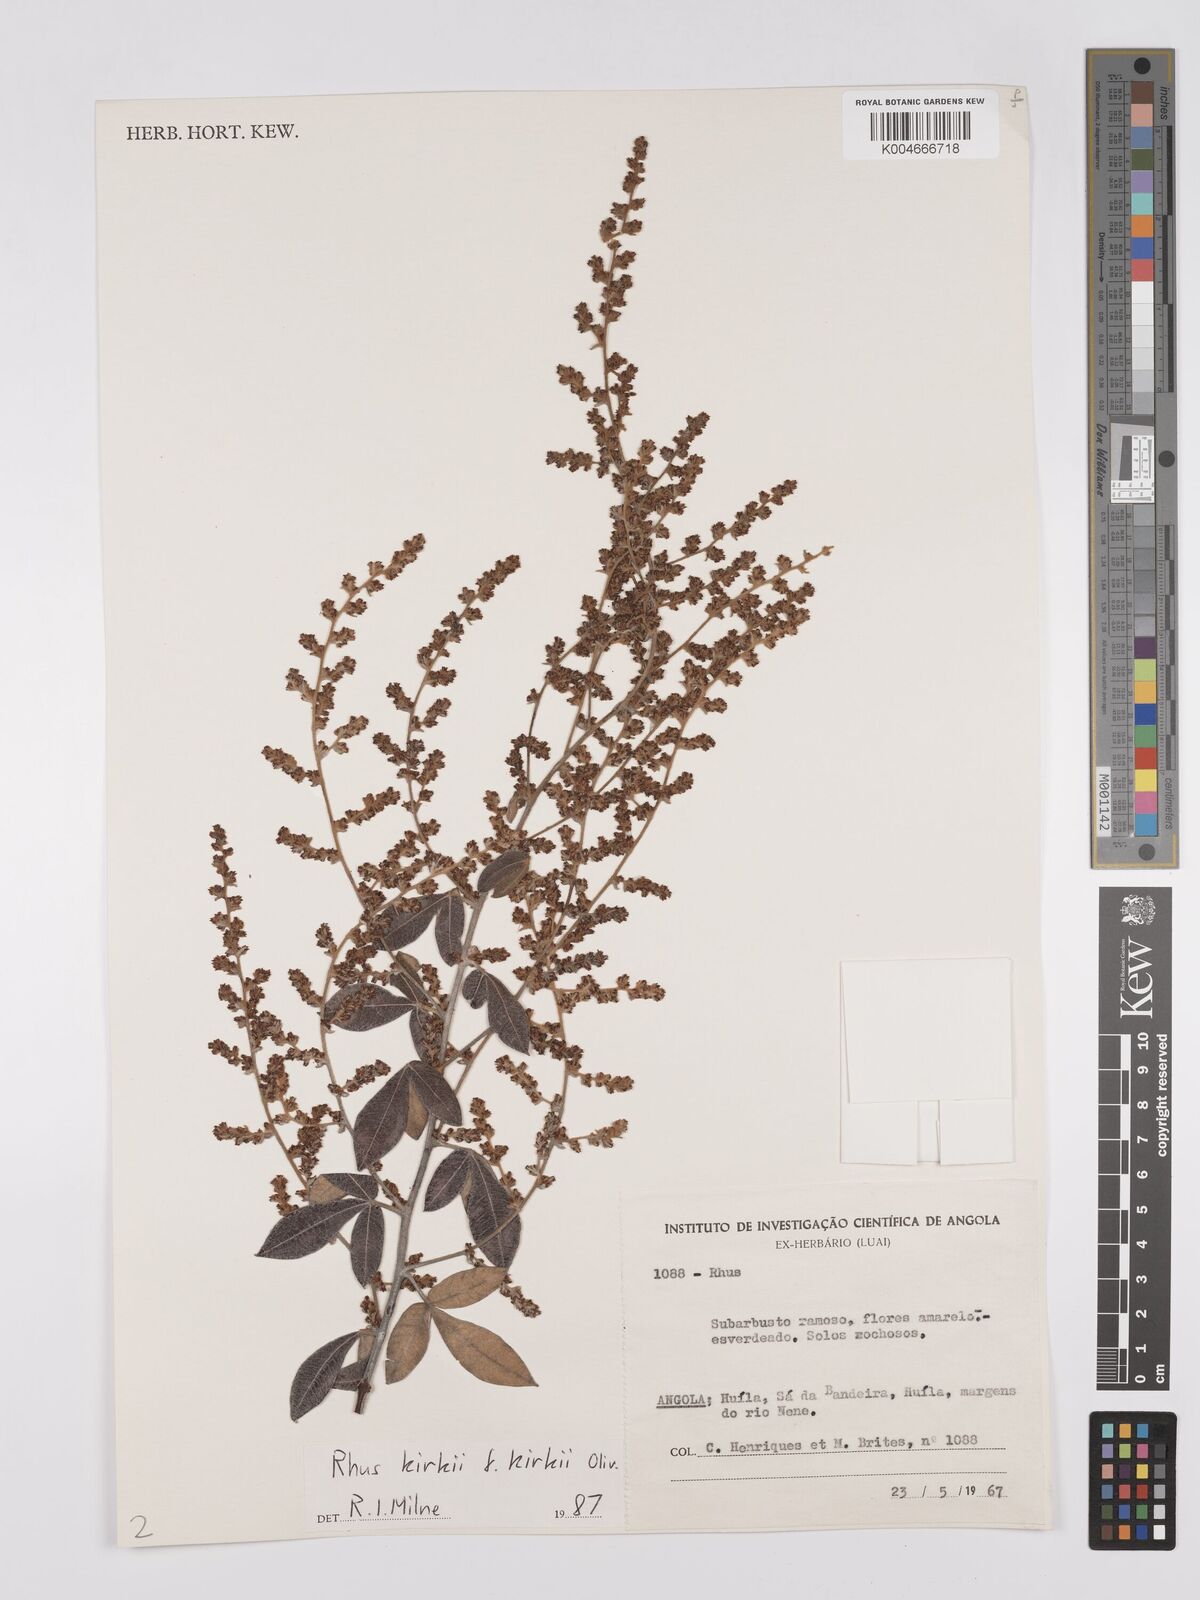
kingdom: Plantae
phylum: Tracheophyta
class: Magnoliopsida
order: Sapindales
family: Anacardiaceae
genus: Searsia
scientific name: Searsia kirkii
